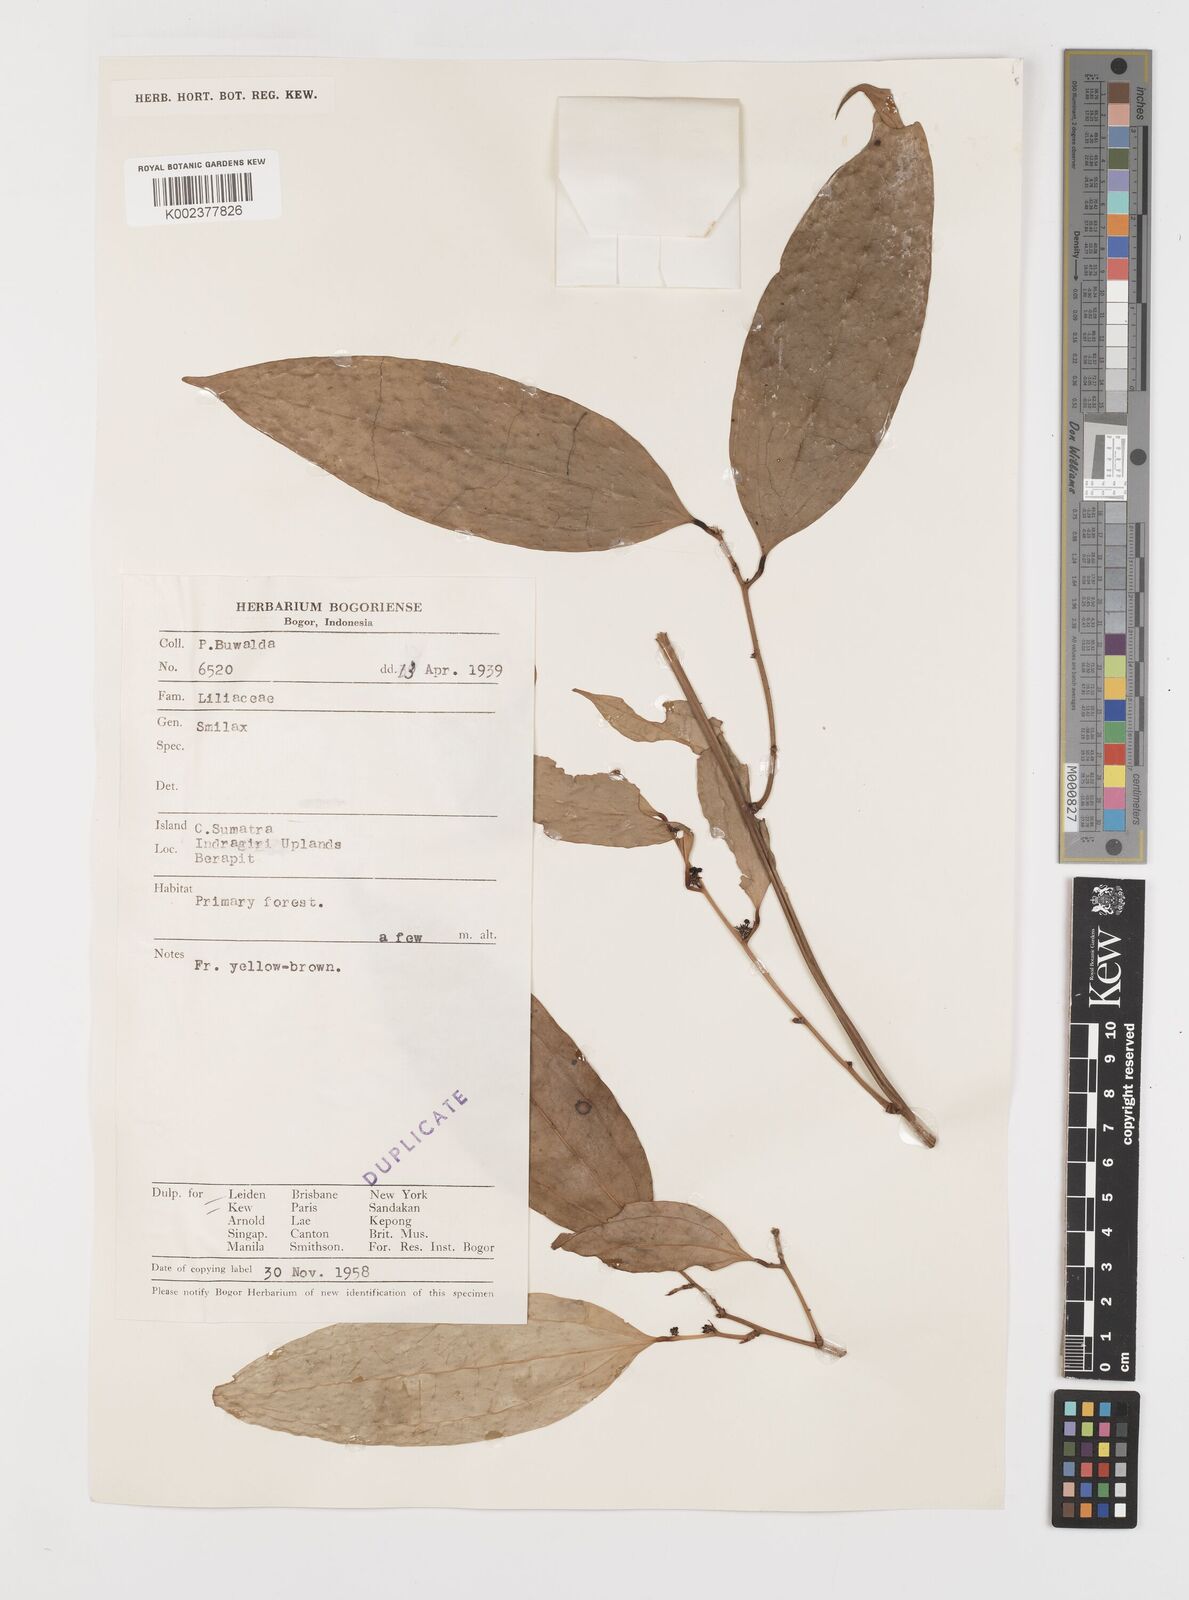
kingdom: Plantae
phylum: Tracheophyta
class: Liliopsida
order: Liliales
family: Smilacaceae
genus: Smilax
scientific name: Smilax
